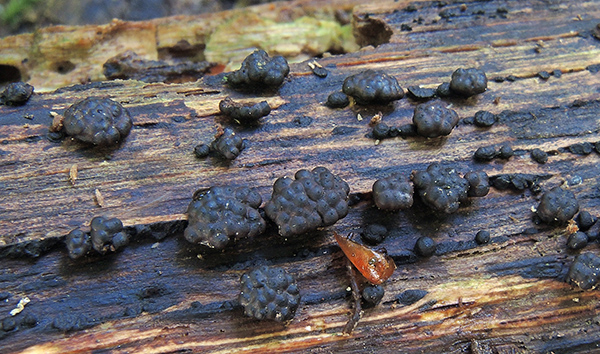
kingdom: Fungi
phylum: Ascomycota
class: Sordariomycetes
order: Xylariales
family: Hypoxylaceae
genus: Jackrogersella
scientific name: Jackrogersella minutella
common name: ege-kulbær
